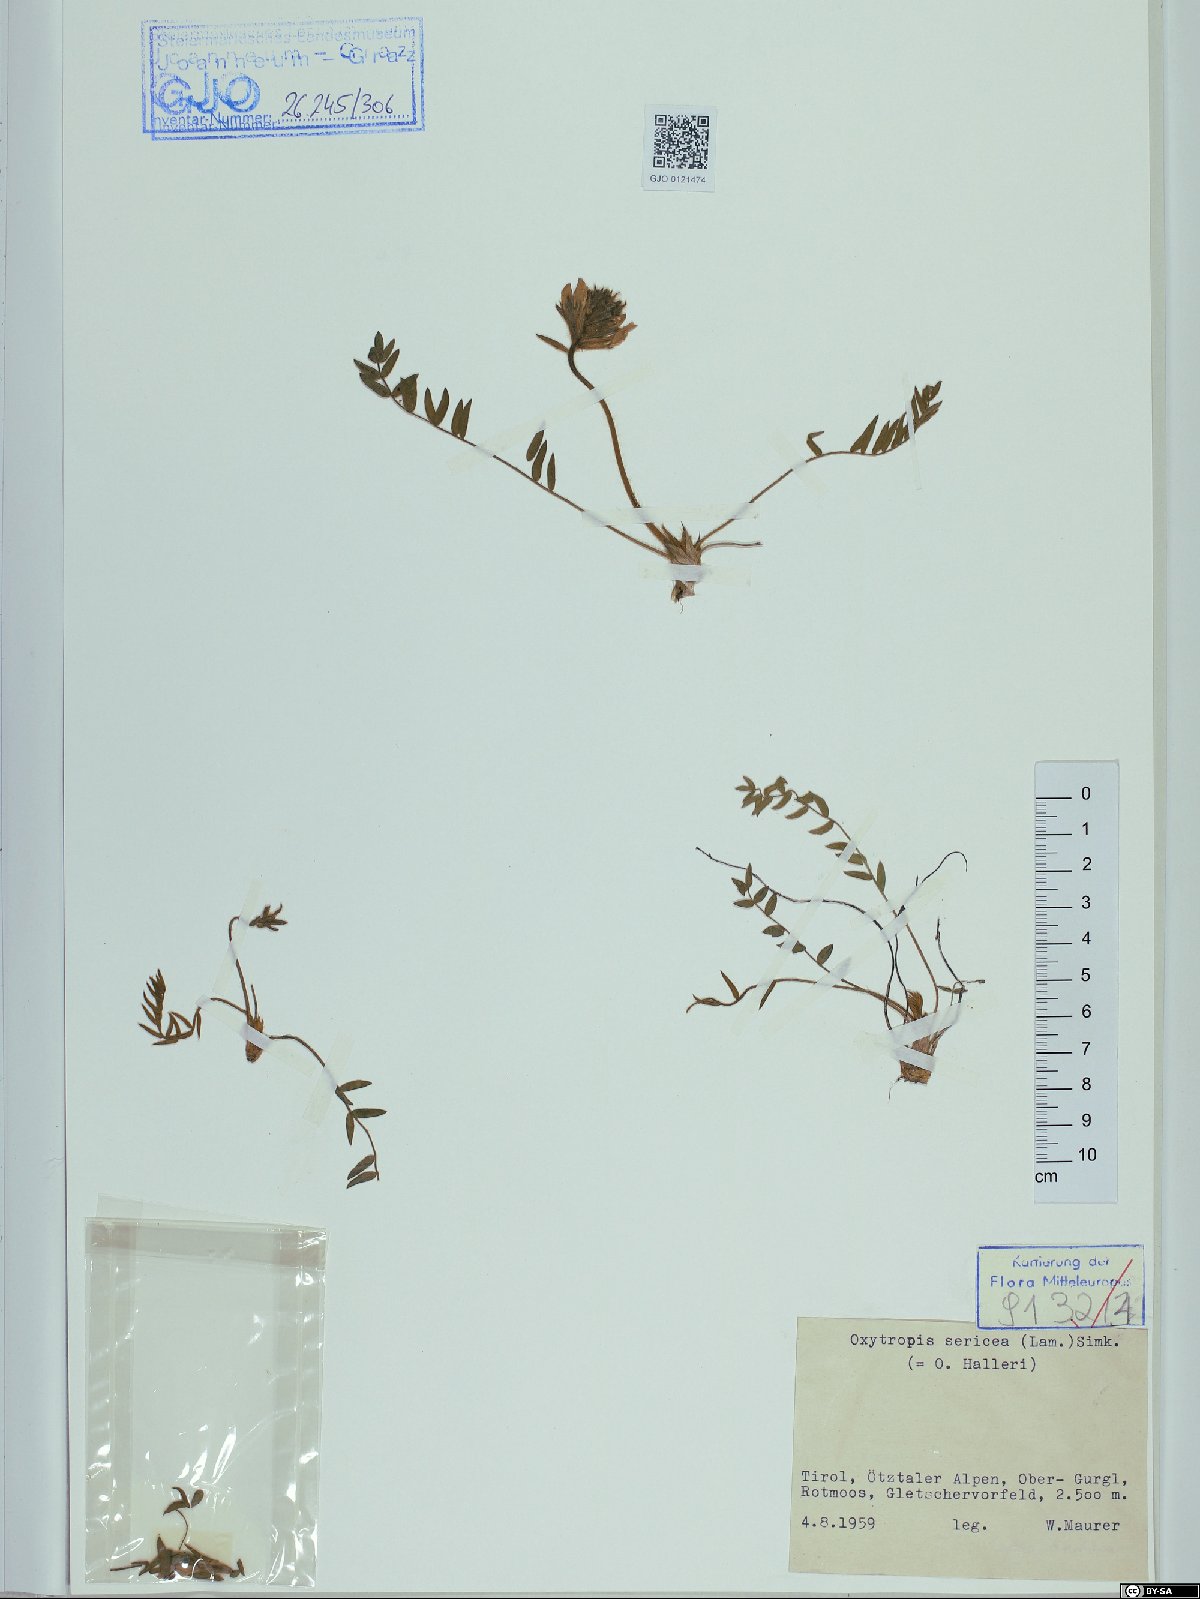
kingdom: Plantae
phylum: Tracheophyta
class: Magnoliopsida
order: Fabales
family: Fabaceae
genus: Oxytropis
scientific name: Oxytropis halleri
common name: Purple oxytropis
